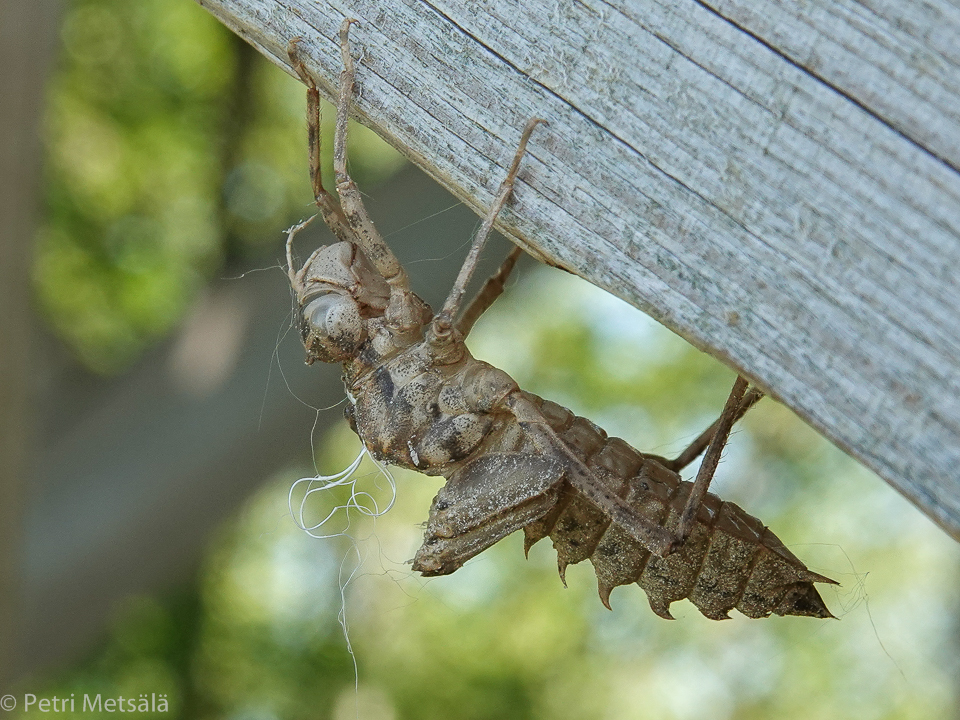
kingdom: Animalia
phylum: Arthropoda
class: Insecta
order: Odonata
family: Corduliidae
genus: Epitheca
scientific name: Epitheca bimaculata
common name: Eurasian baskettail
